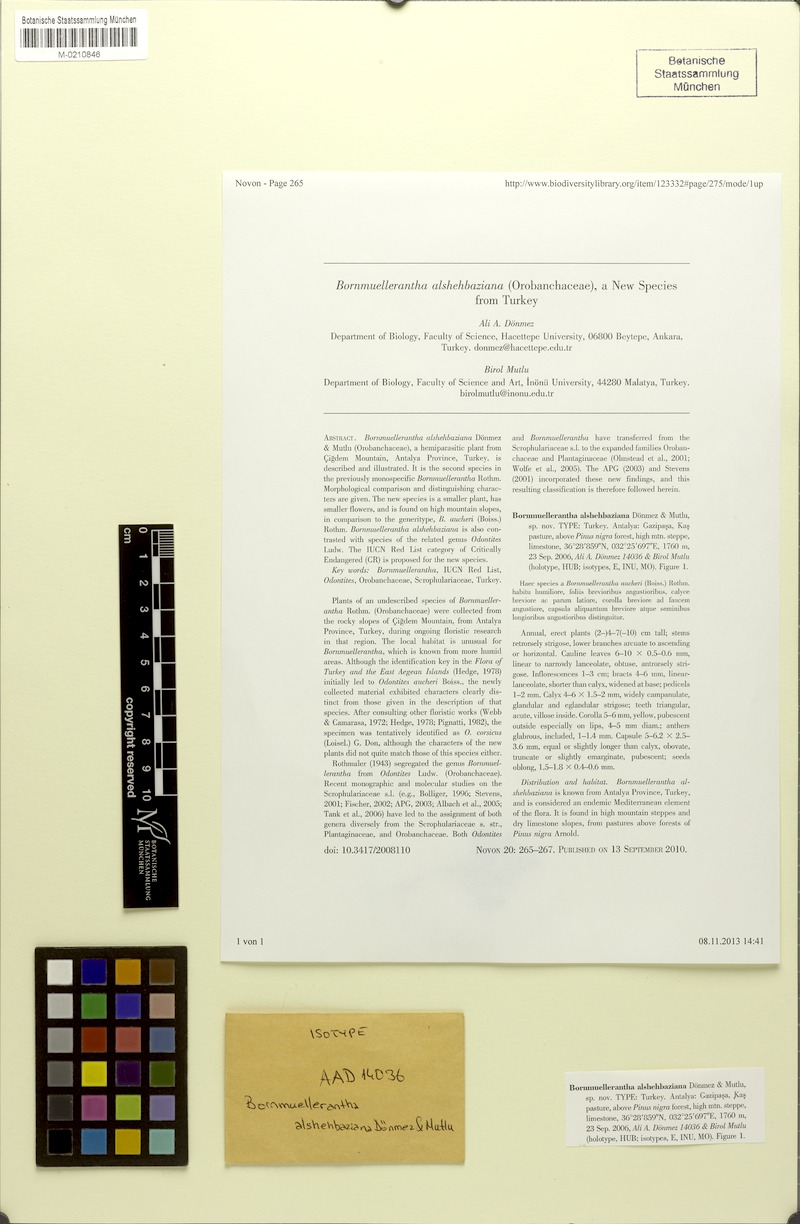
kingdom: Plantae
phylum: Tracheophyta
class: Magnoliopsida
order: Lamiales
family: Orobanchaceae
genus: Odontites
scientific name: Odontites alshehbazianus
